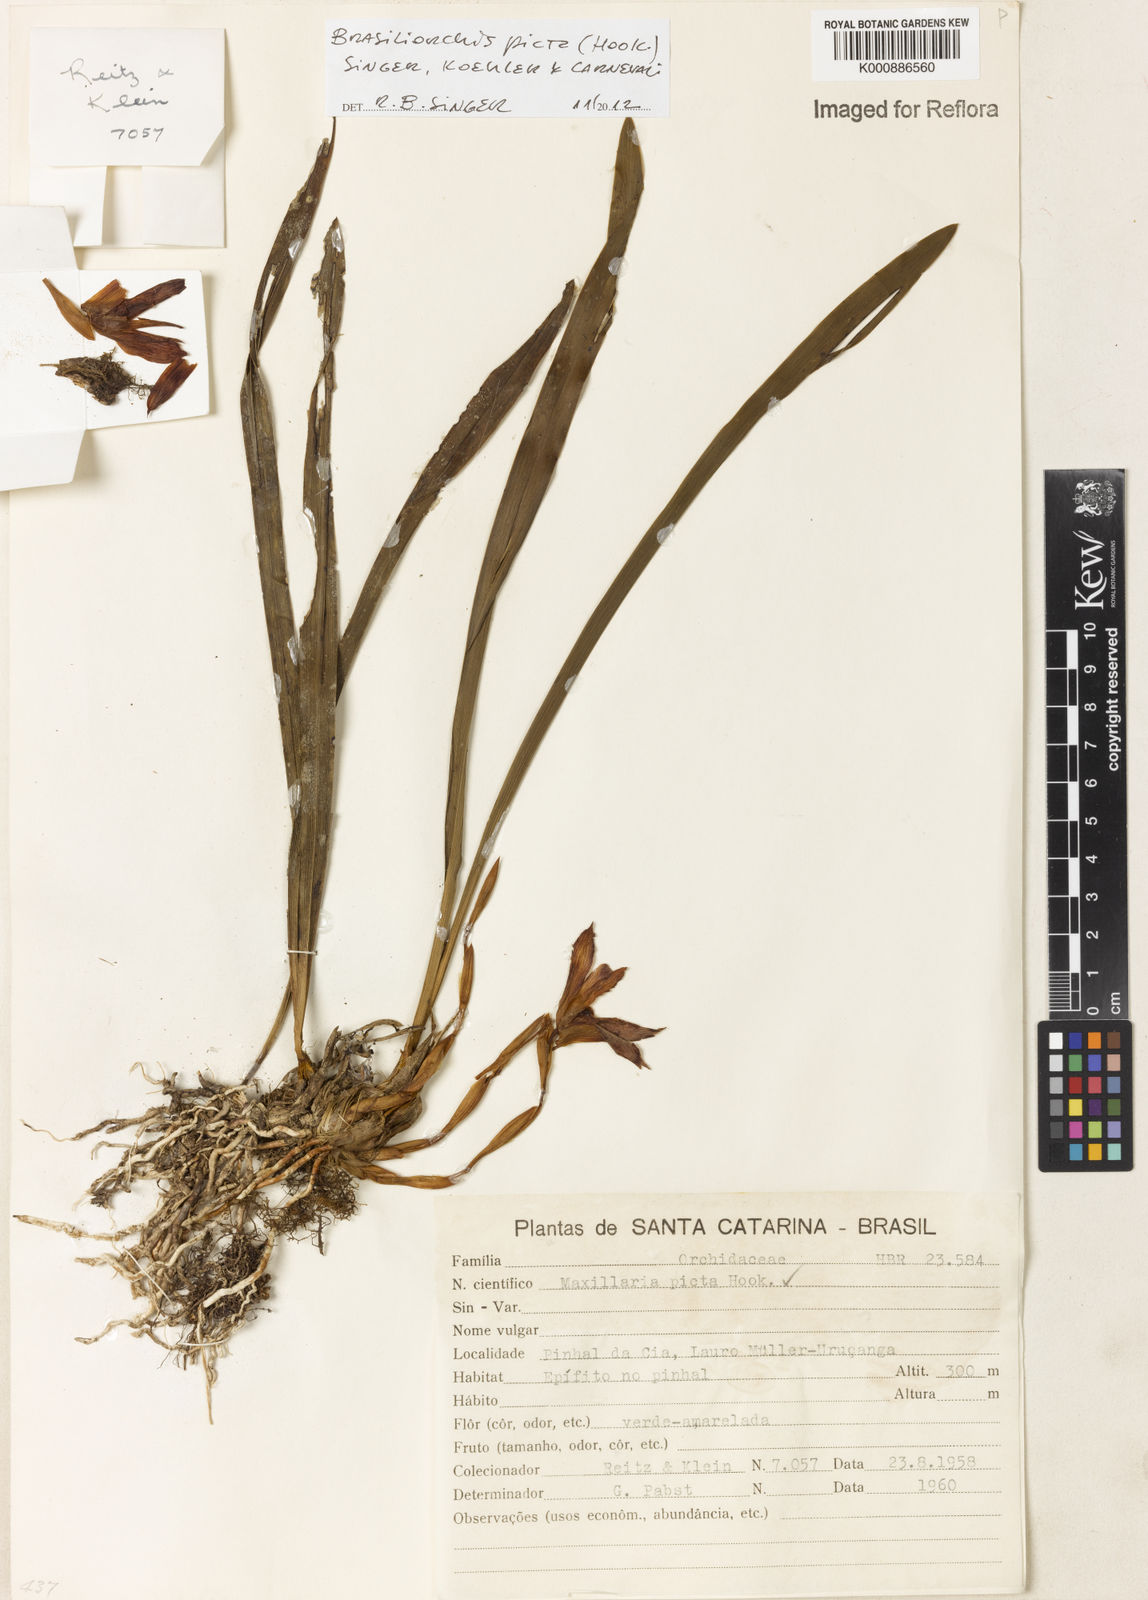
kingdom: Plantae
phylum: Tracheophyta
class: Liliopsida
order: Asparagales
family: Orchidaceae
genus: Maxillaria
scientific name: Maxillaria
